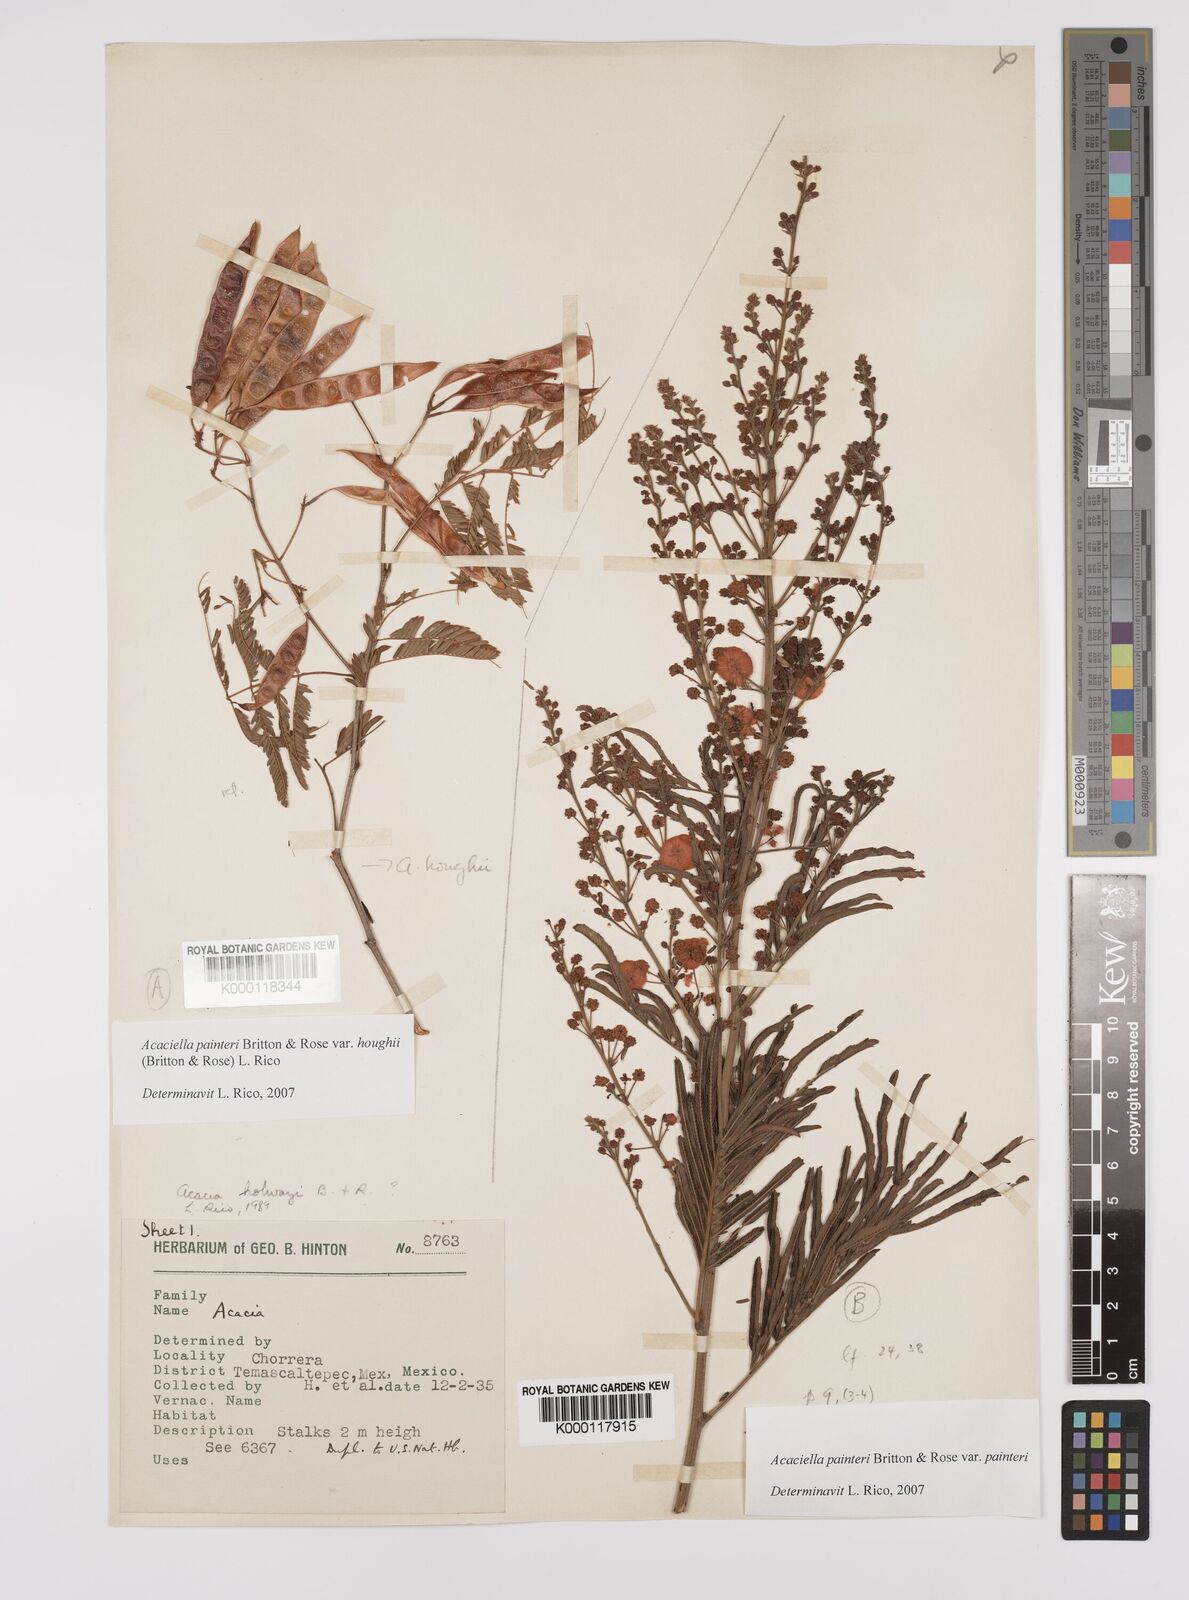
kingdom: Plantae
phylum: Tracheophyta
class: Magnoliopsida
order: Fabales
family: Fabaceae
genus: Acaciella
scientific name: Acaciella painteri
